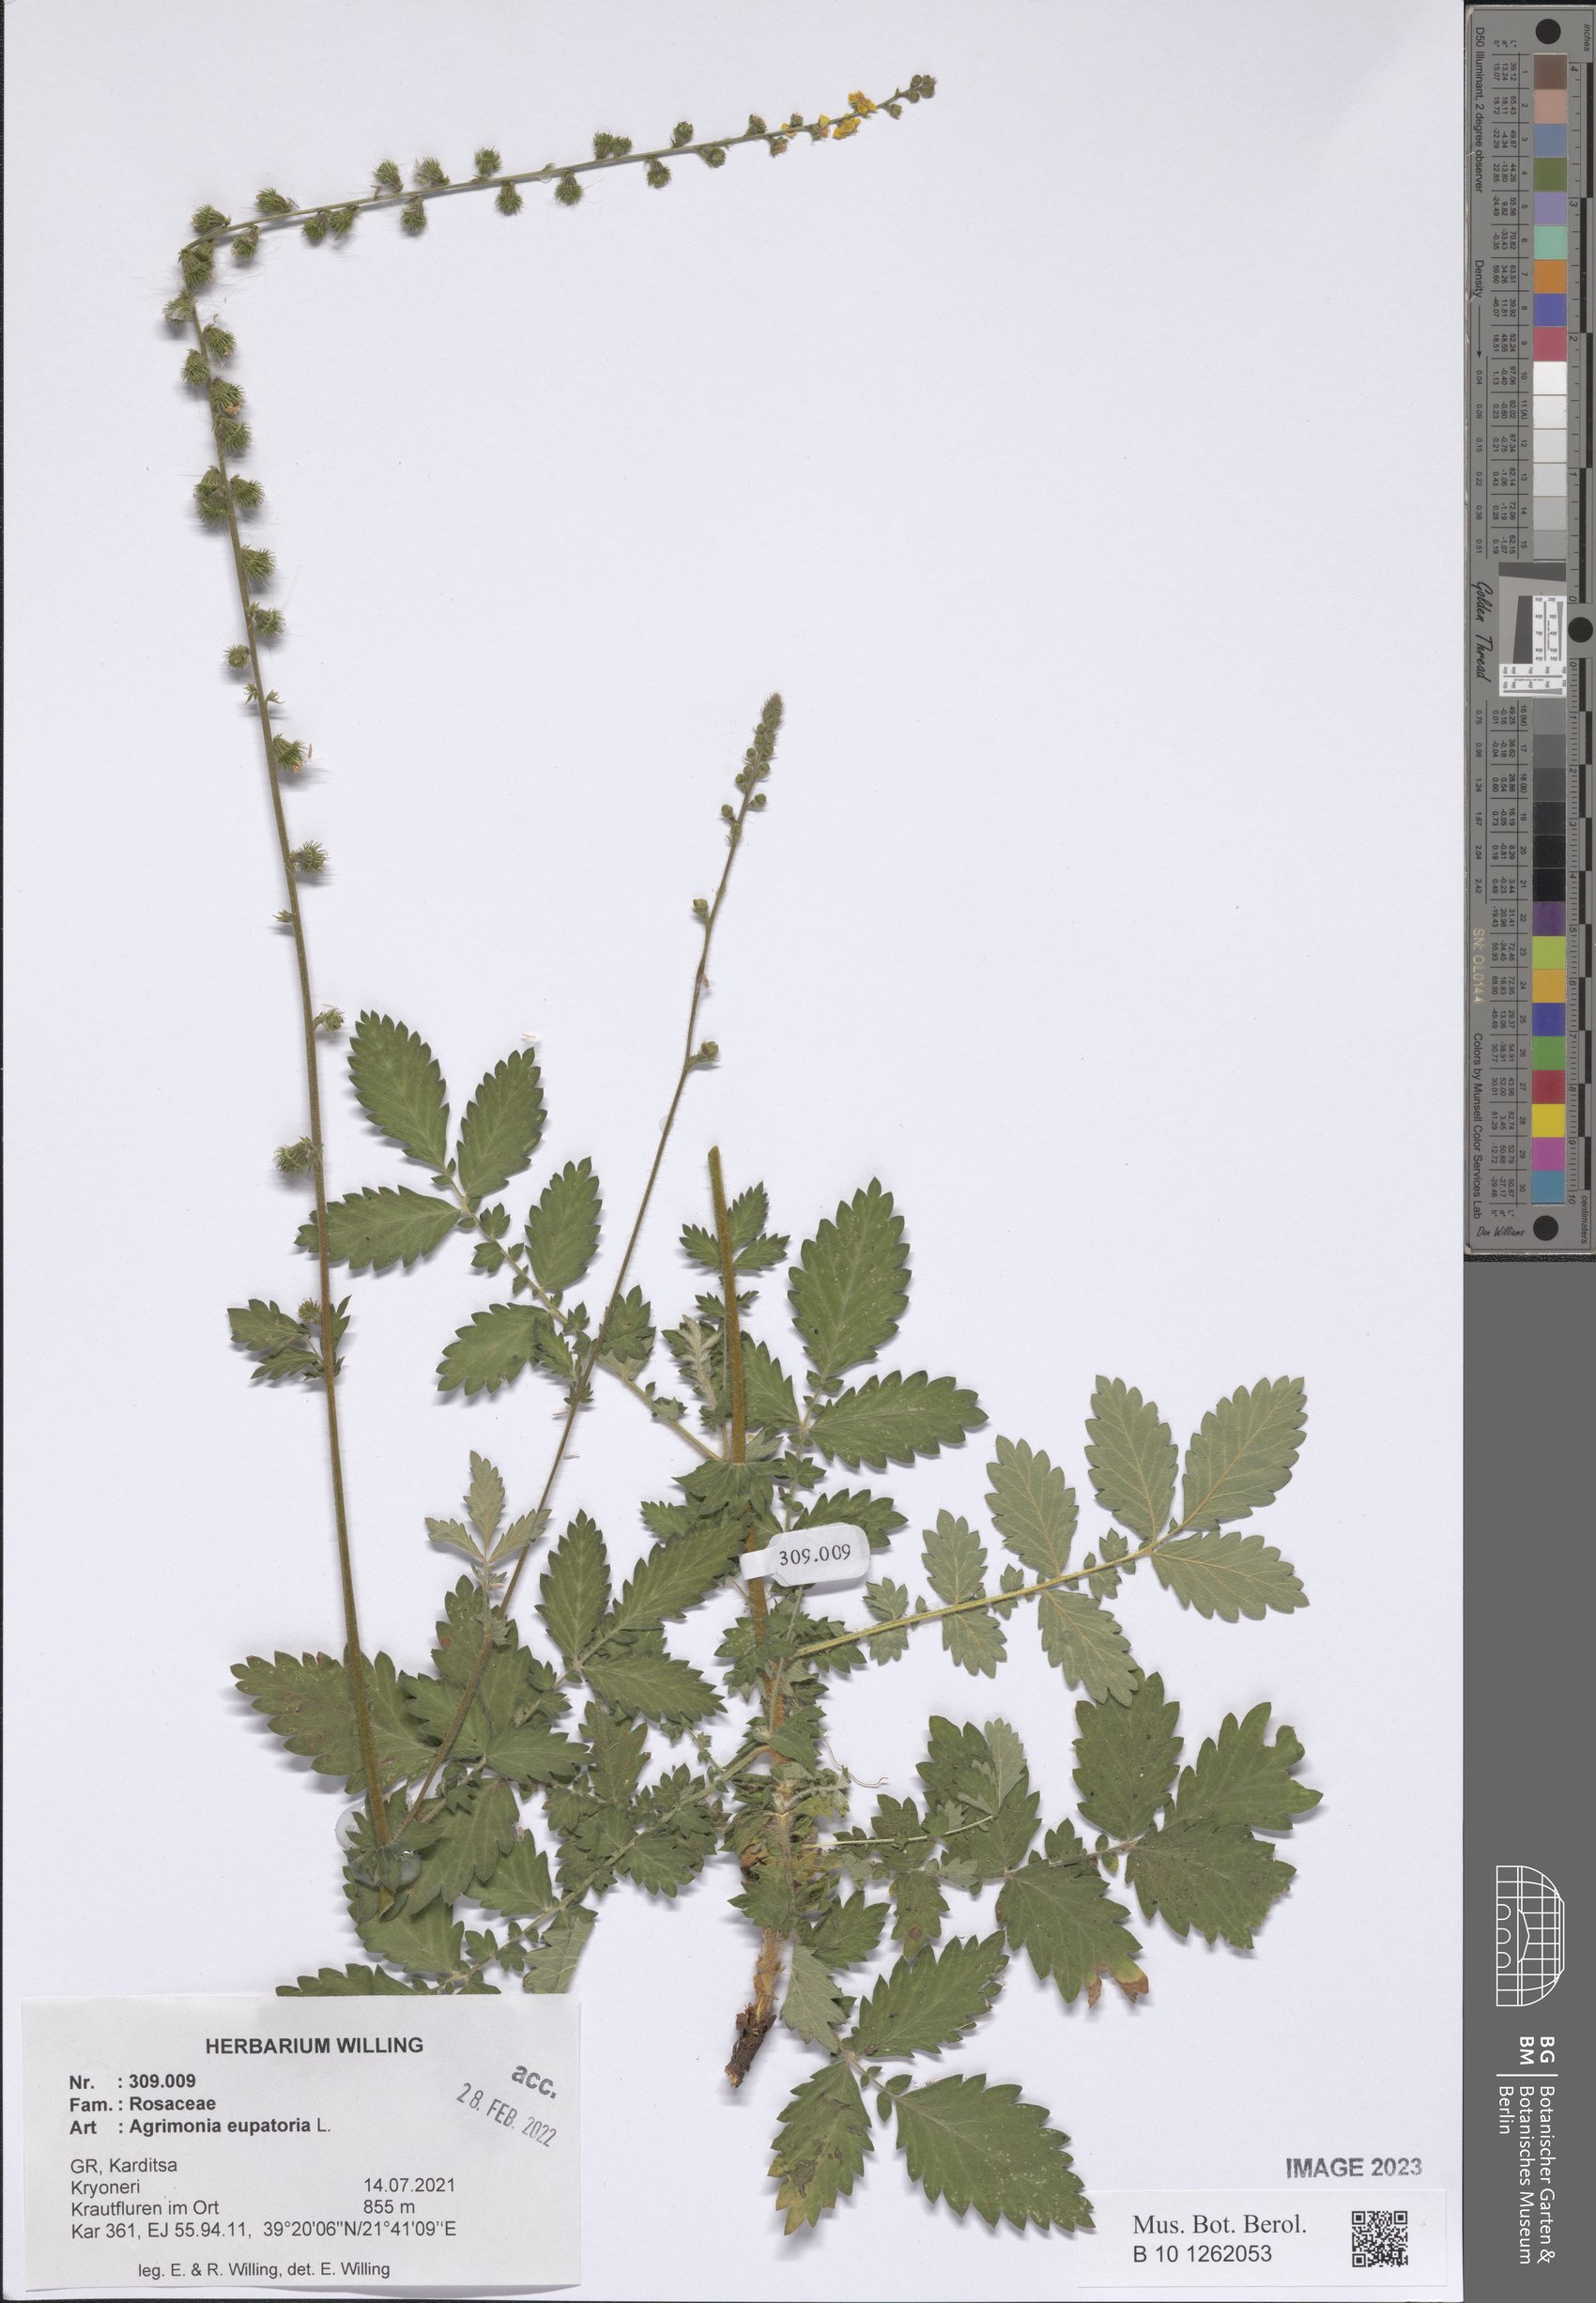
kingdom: Plantae
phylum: Tracheophyta
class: Magnoliopsida
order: Rosales
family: Rosaceae
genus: Agrimonia
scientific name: Agrimonia eupatoria
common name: Agrimony
